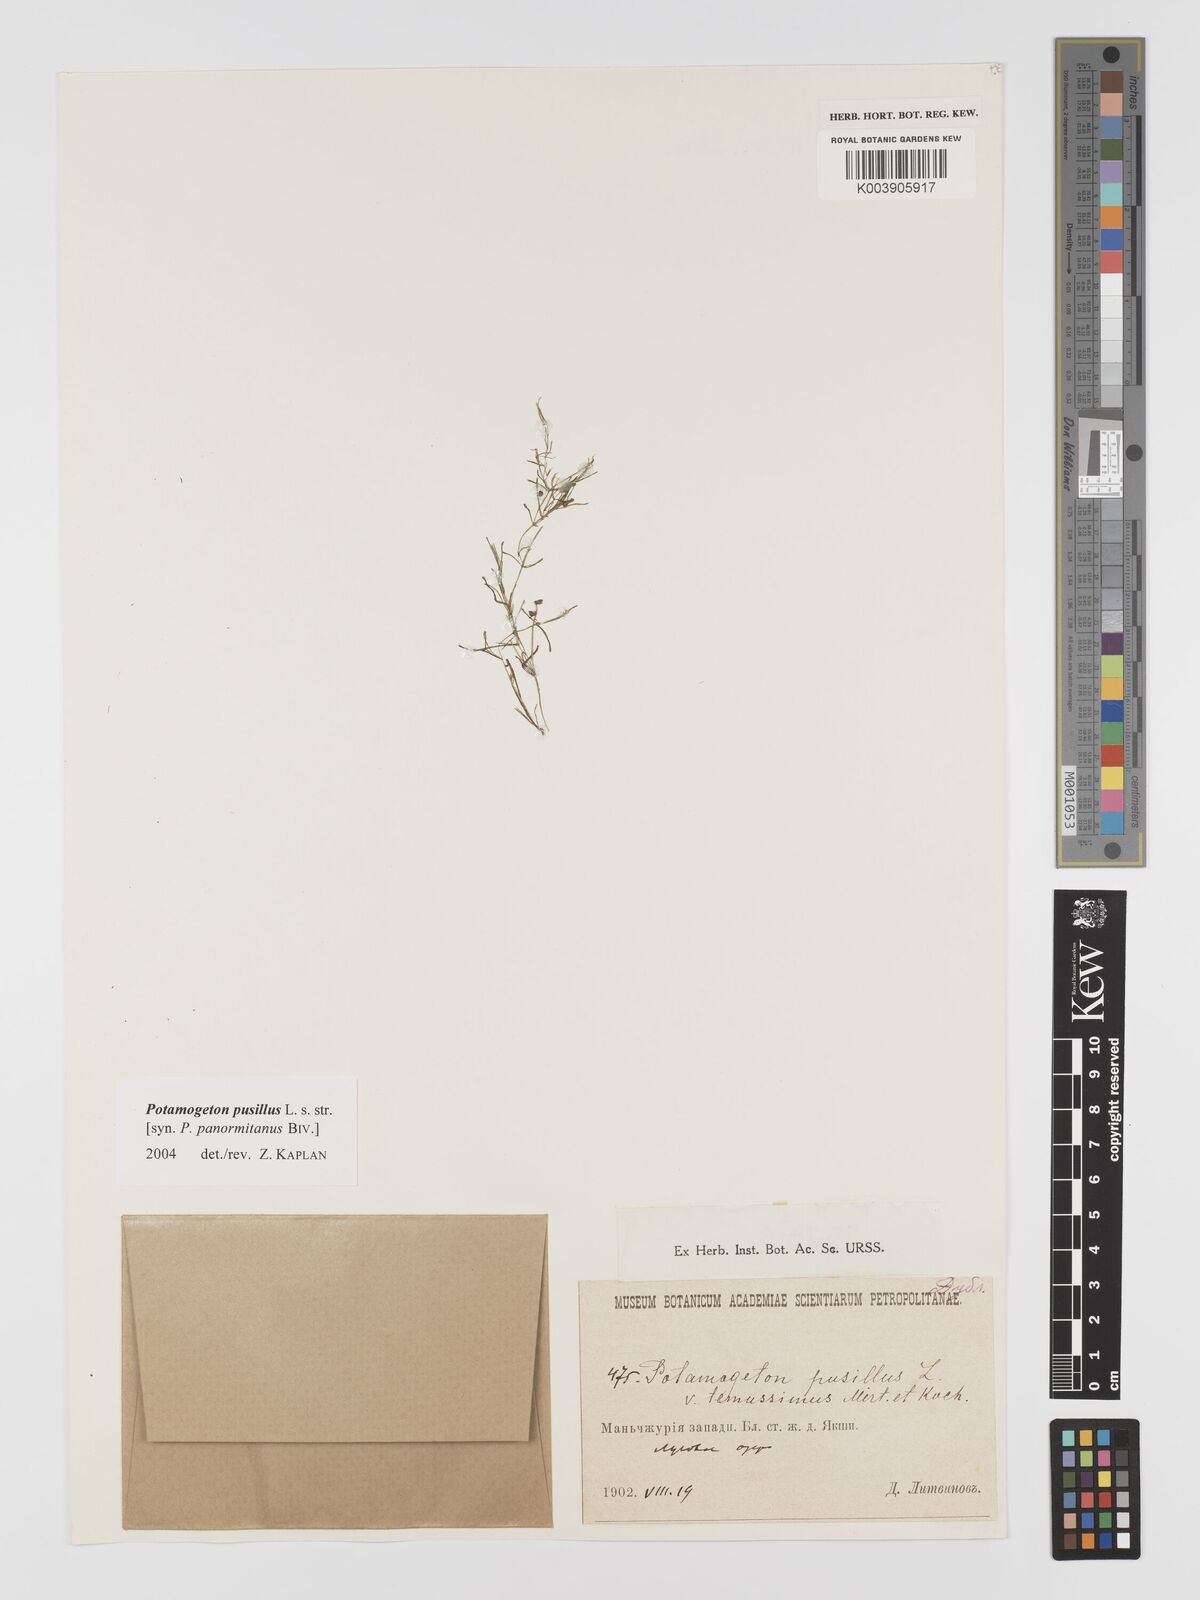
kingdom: Plantae
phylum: Tracheophyta
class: Liliopsida
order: Alismatales
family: Potamogetonaceae
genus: Potamogeton
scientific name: Potamogeton pusillus
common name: Lesser pondweed
